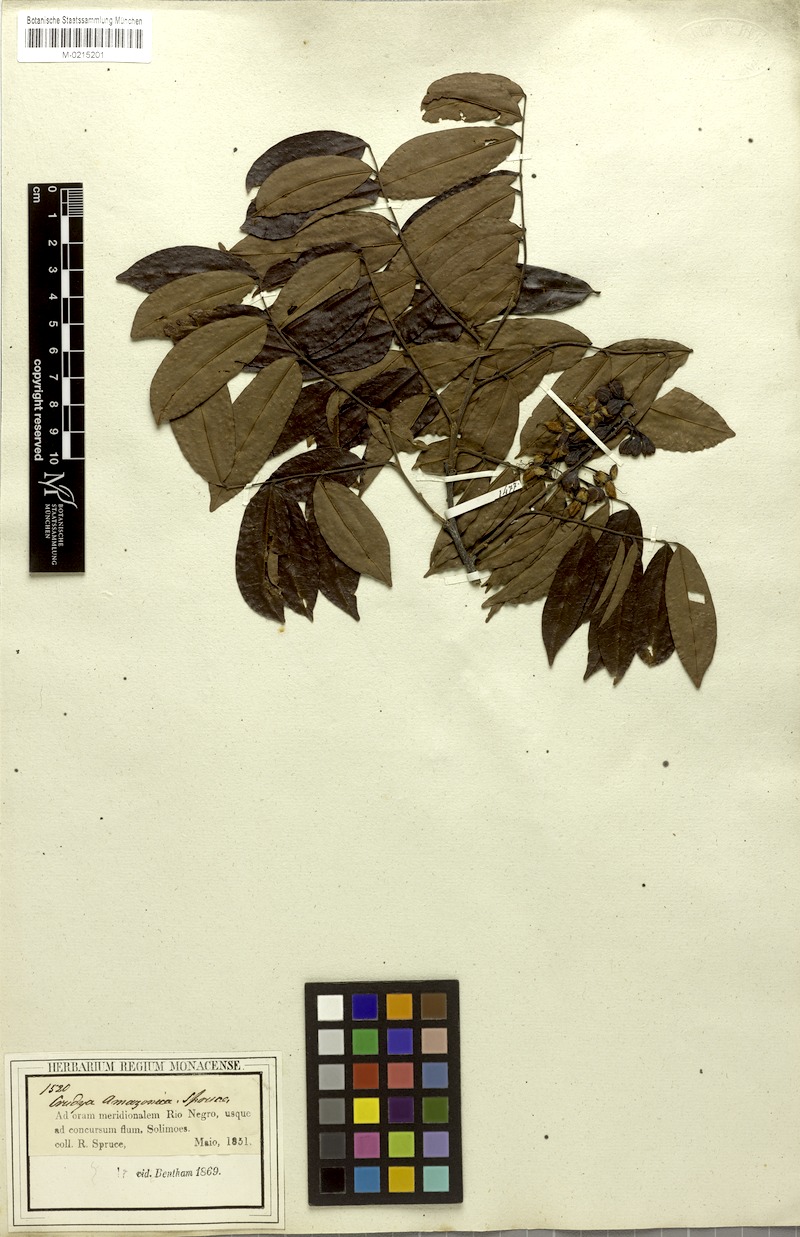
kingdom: Plantae
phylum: Tracheophyta
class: Magnoliopsida
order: Fabales
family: Fabaceae
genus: Crudia
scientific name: Crudia amazonica
